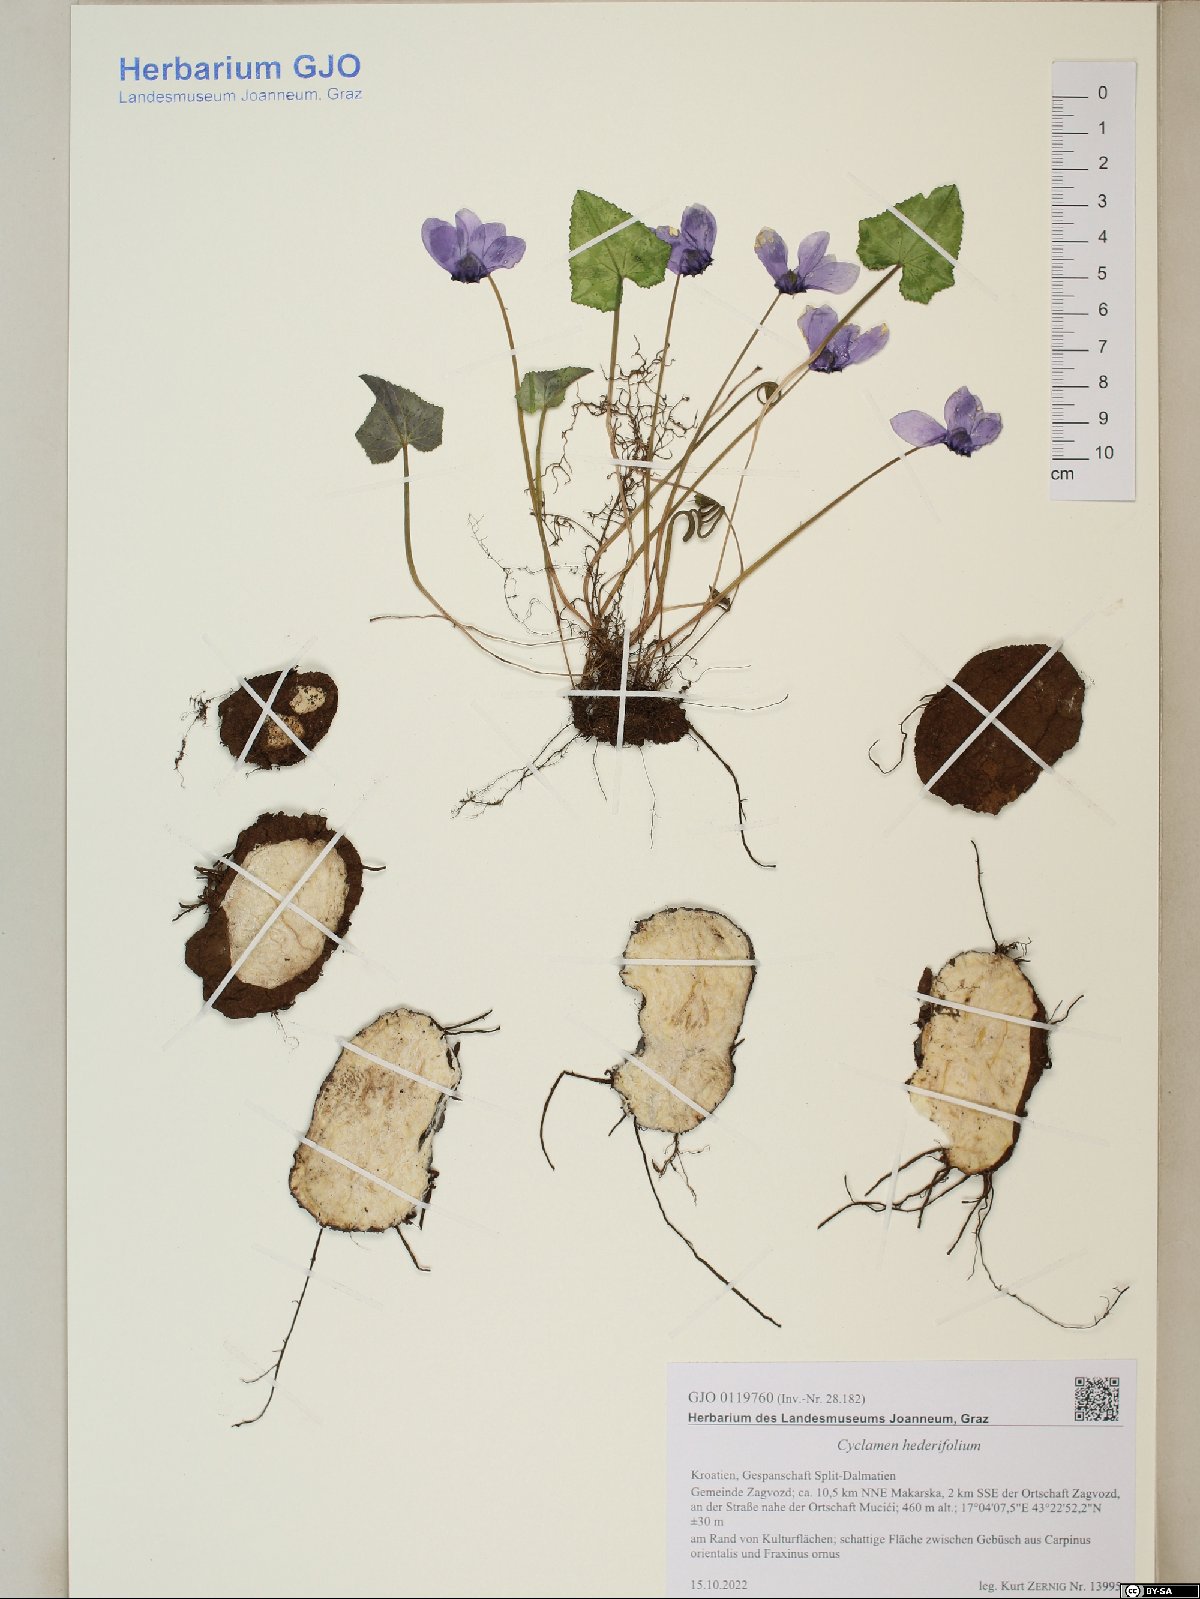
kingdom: Plantae
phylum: Tracheophyta
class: Magnoliopsida
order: Ericales
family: Primulaceae
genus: Cyclamen
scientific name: Cyclamen hederifolium
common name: Sowbread
